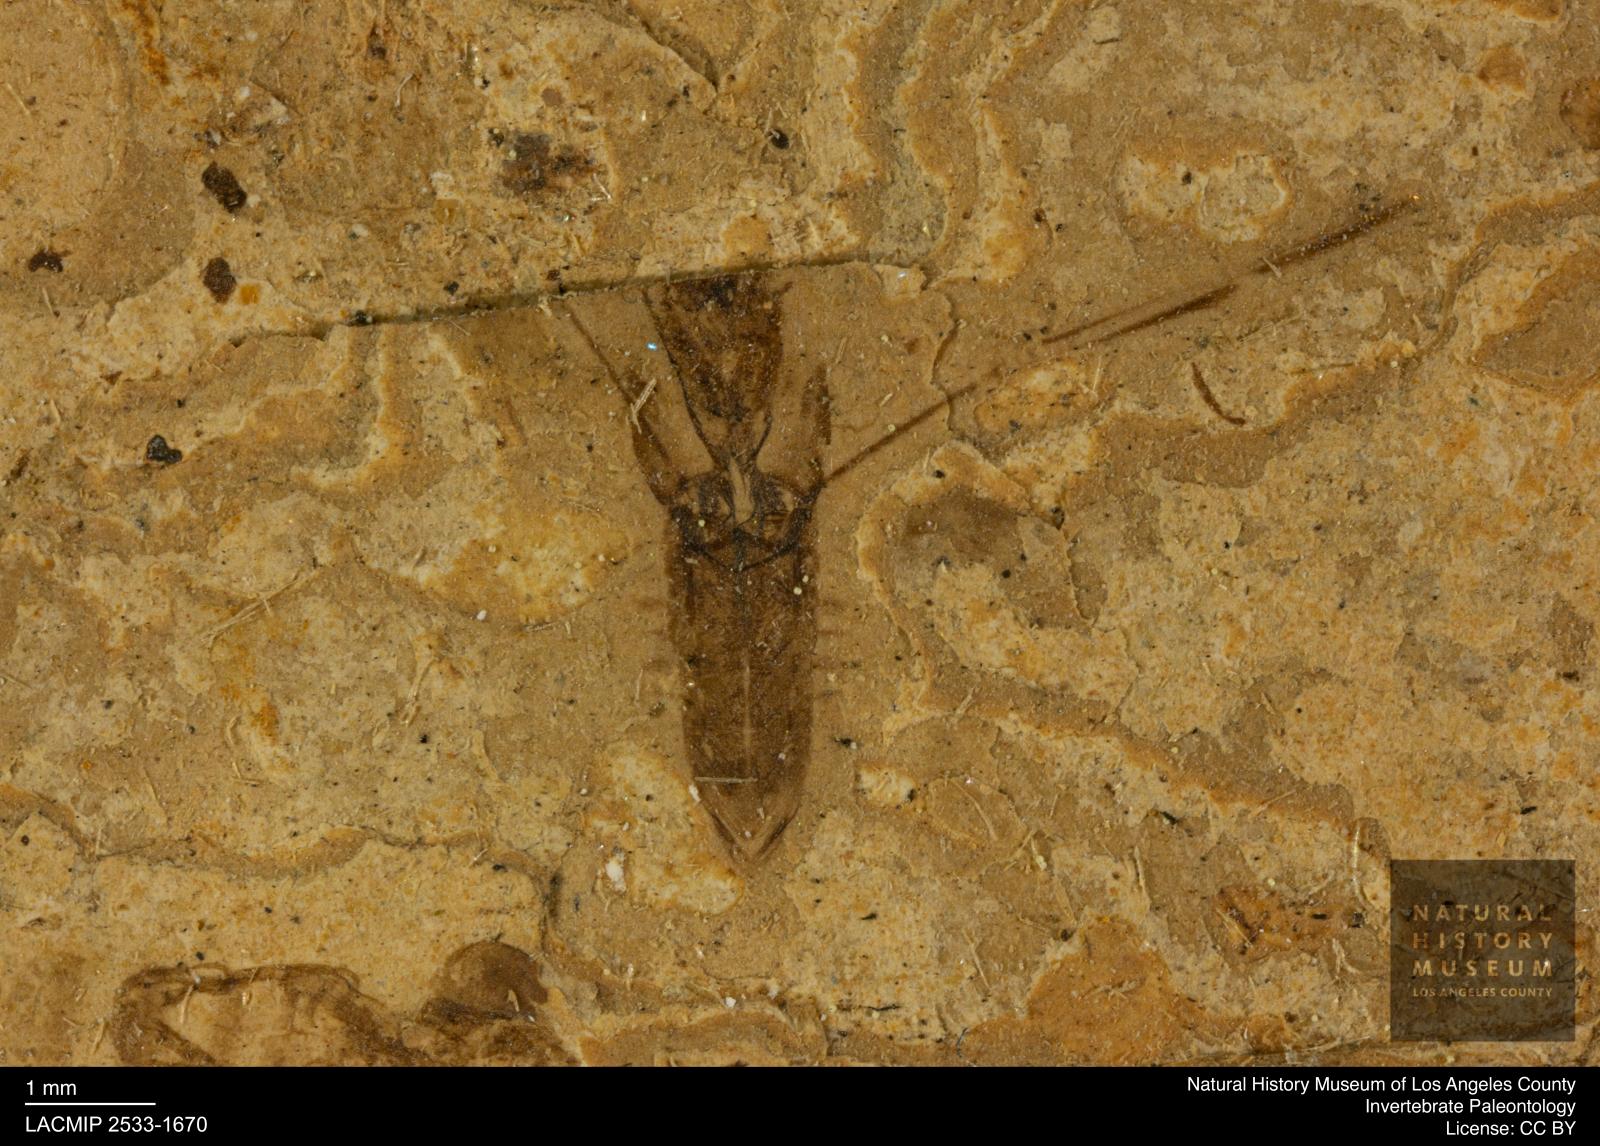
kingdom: Animalia
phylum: Arthropoda
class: Insecta
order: Hemiptera
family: Notonectidae
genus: Notonecta
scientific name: Notonecta
